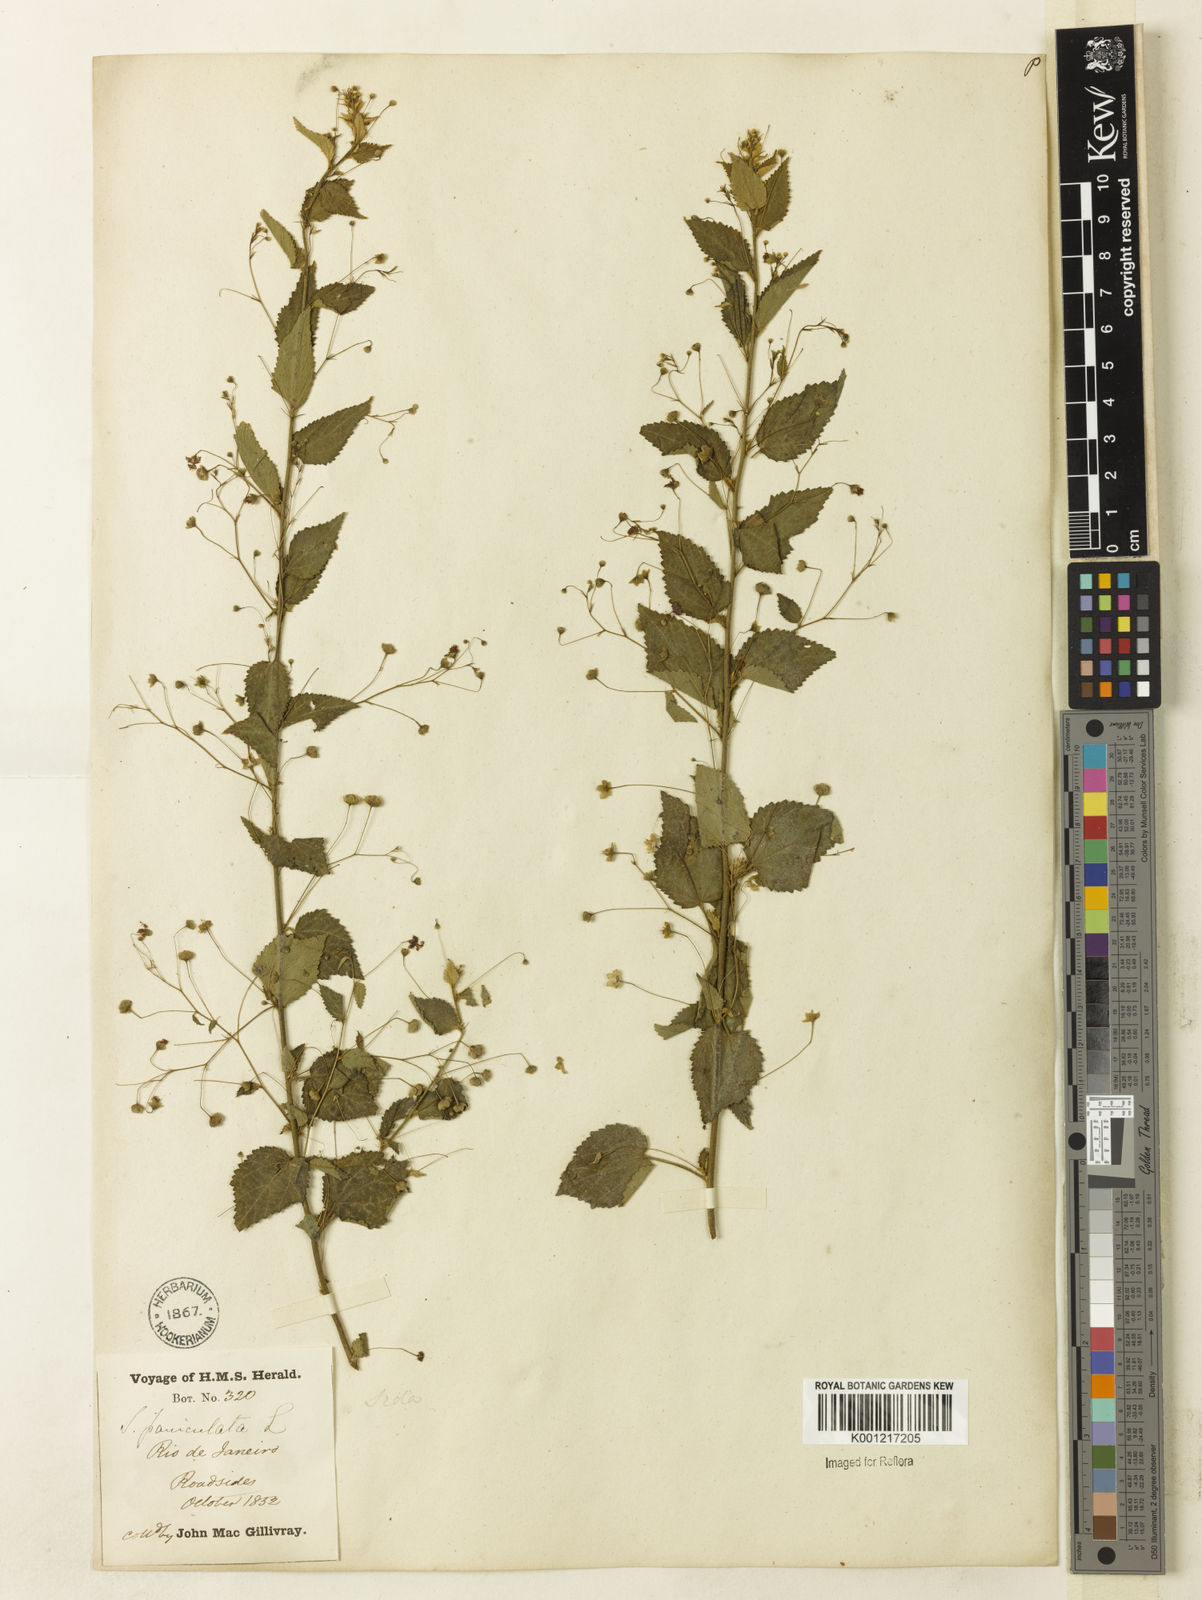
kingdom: Plantae
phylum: Tracheophyta
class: Magnoliopsida
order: Malvales
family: Malvaceae
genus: Sidastrum
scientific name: Sidastrum paniculatum
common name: Panicled sandmallow
